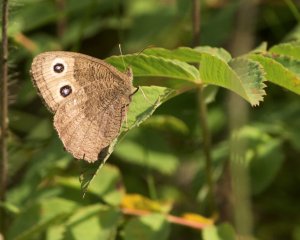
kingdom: Animalia
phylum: Arthropoda
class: Insecta
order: Lepidoptera
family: Nymphalidae
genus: Cercyonis
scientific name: Cercyonis pegala
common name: Common Wood-Nymph
